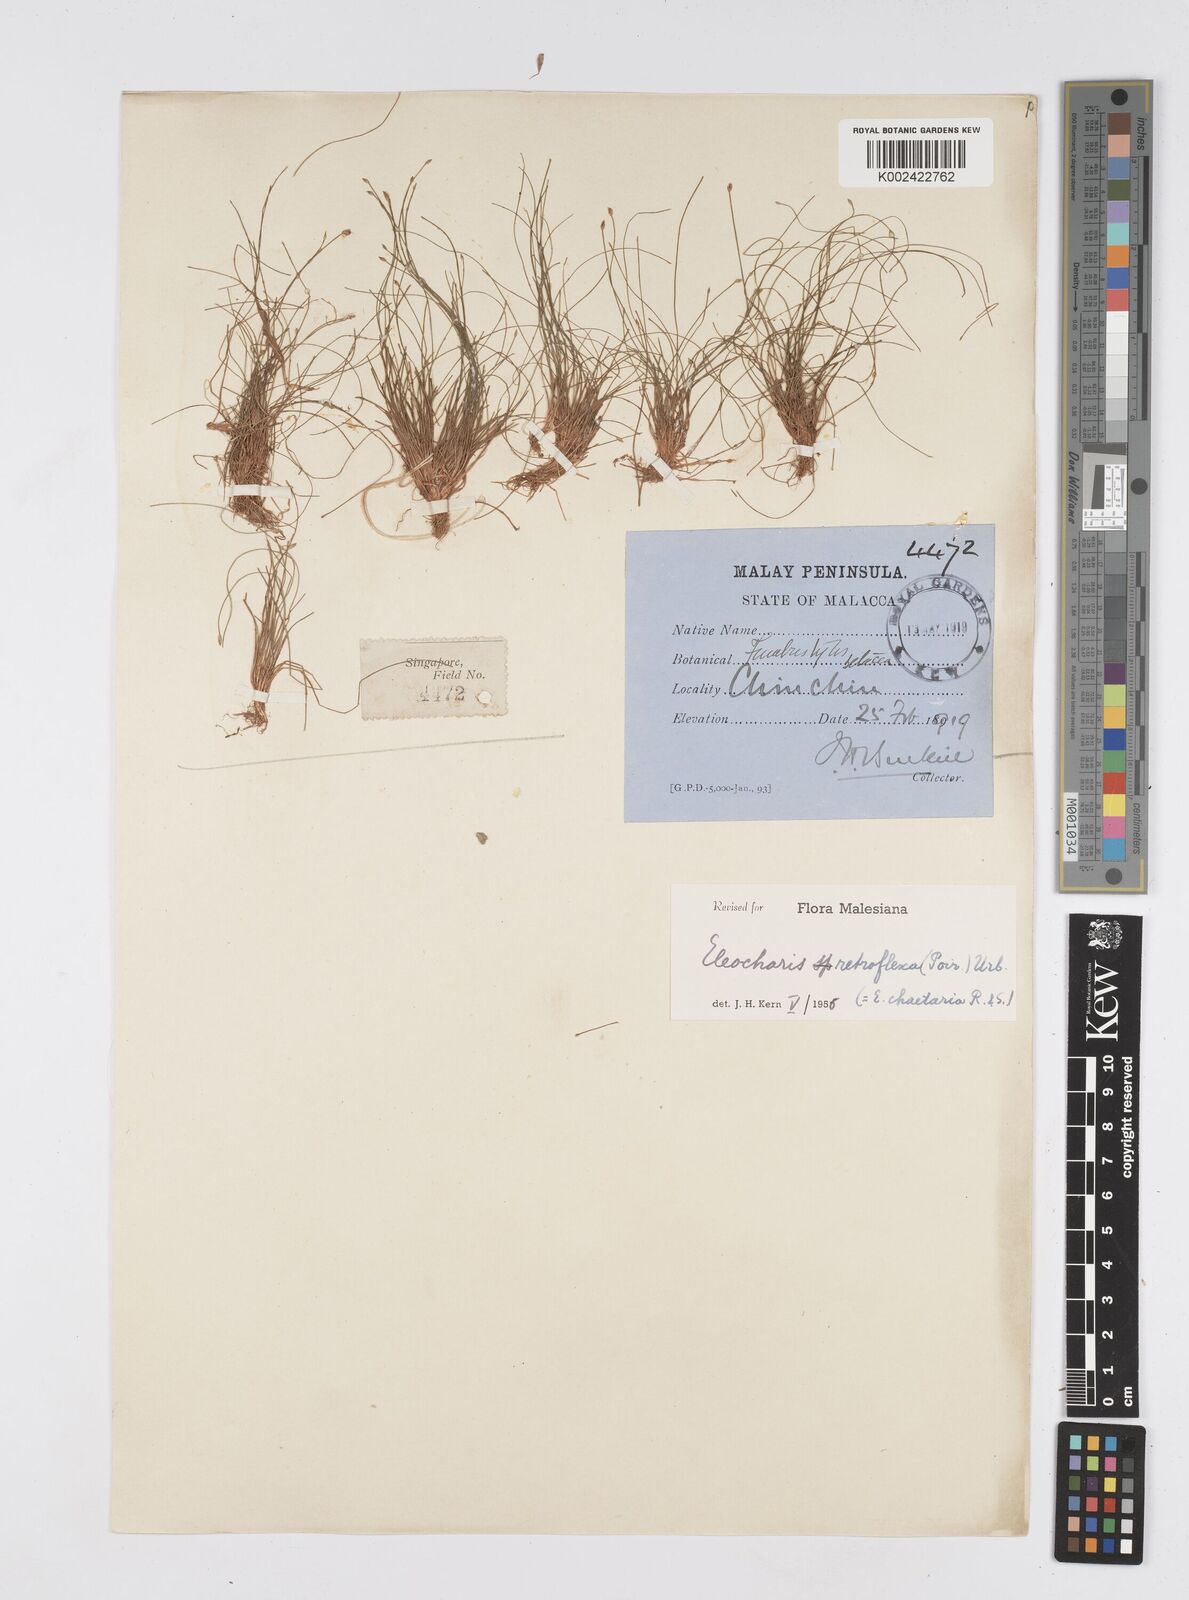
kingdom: Plantae
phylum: Tracheophyta
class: Liliopsida
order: Poales
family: Cyperaceae
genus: Eleocharis
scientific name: Eleocharis retroflexa
